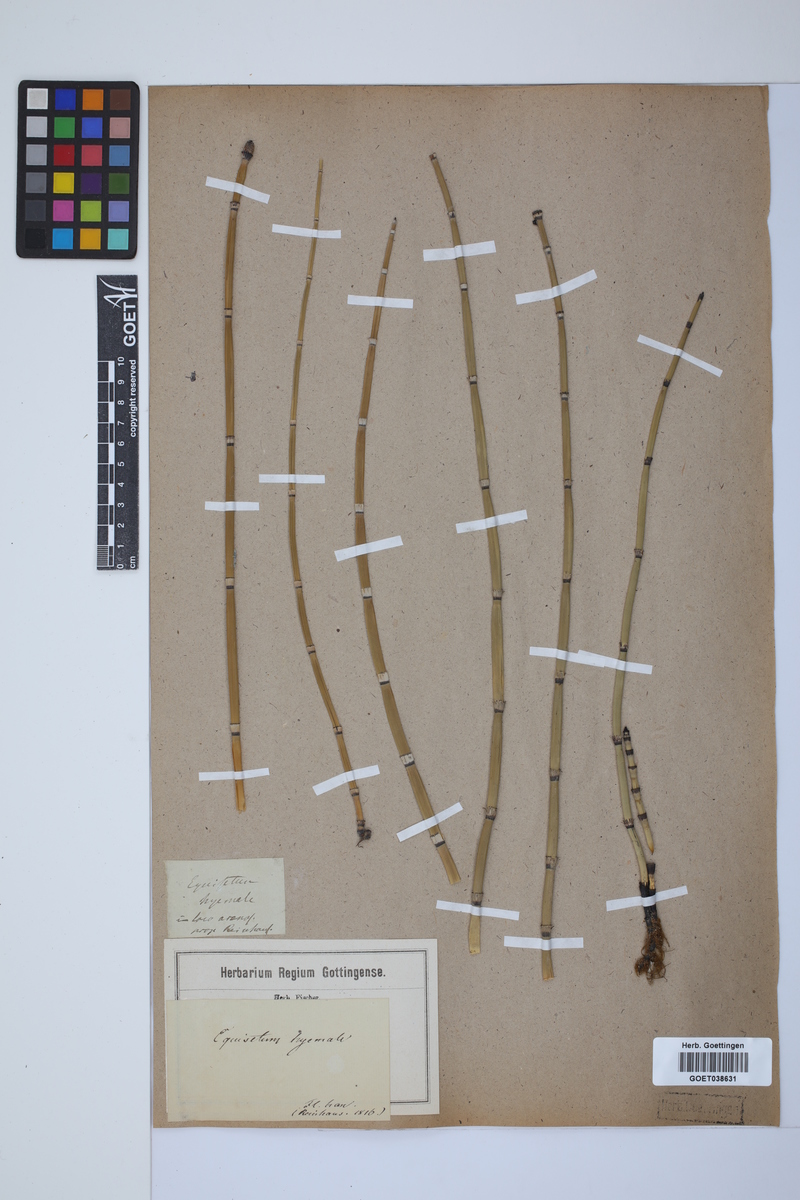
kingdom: Plantae
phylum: Tracheophyta
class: Polypodiopsida
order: Equisetales
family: Equisetaceae
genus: Equisetum
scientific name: Equisetum hyemale
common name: Rough horsetail
